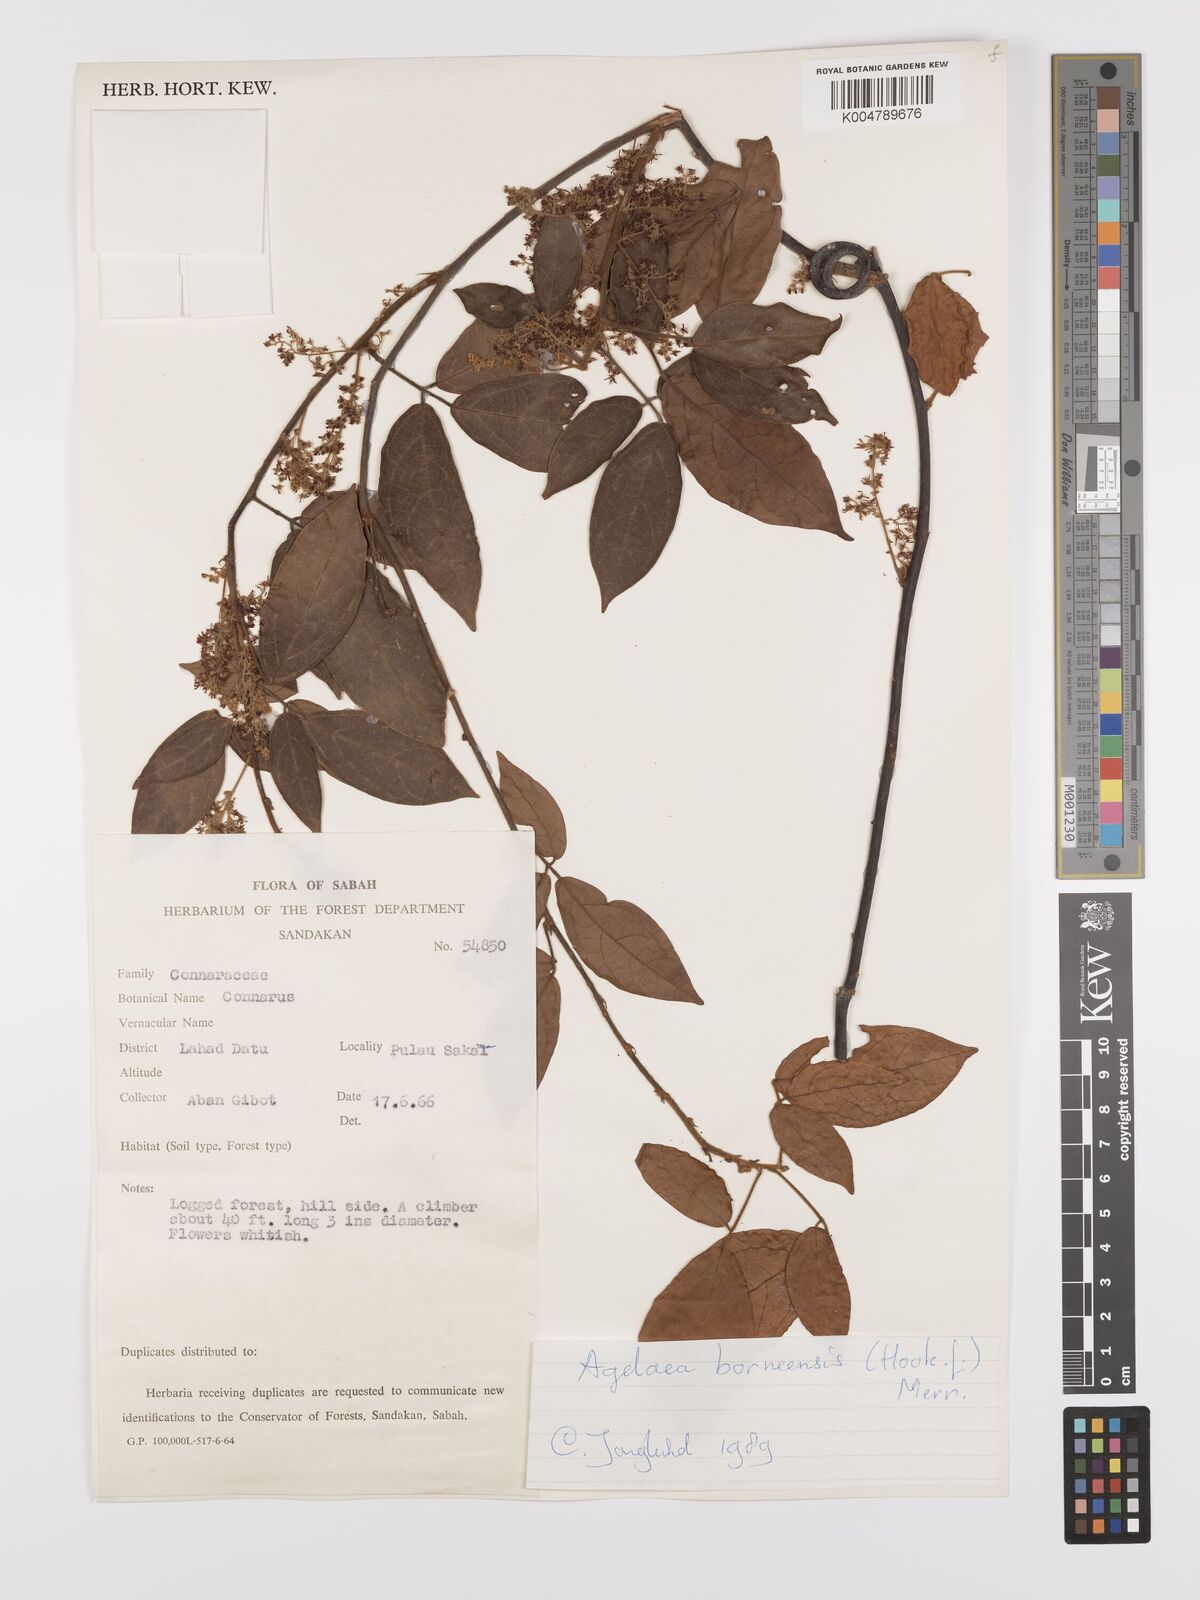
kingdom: Plantae
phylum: Tracheophyta
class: Magnoliopsida
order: Oxalidales
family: Connaraceae
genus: Agelaea
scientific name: Agelaea borneensis
